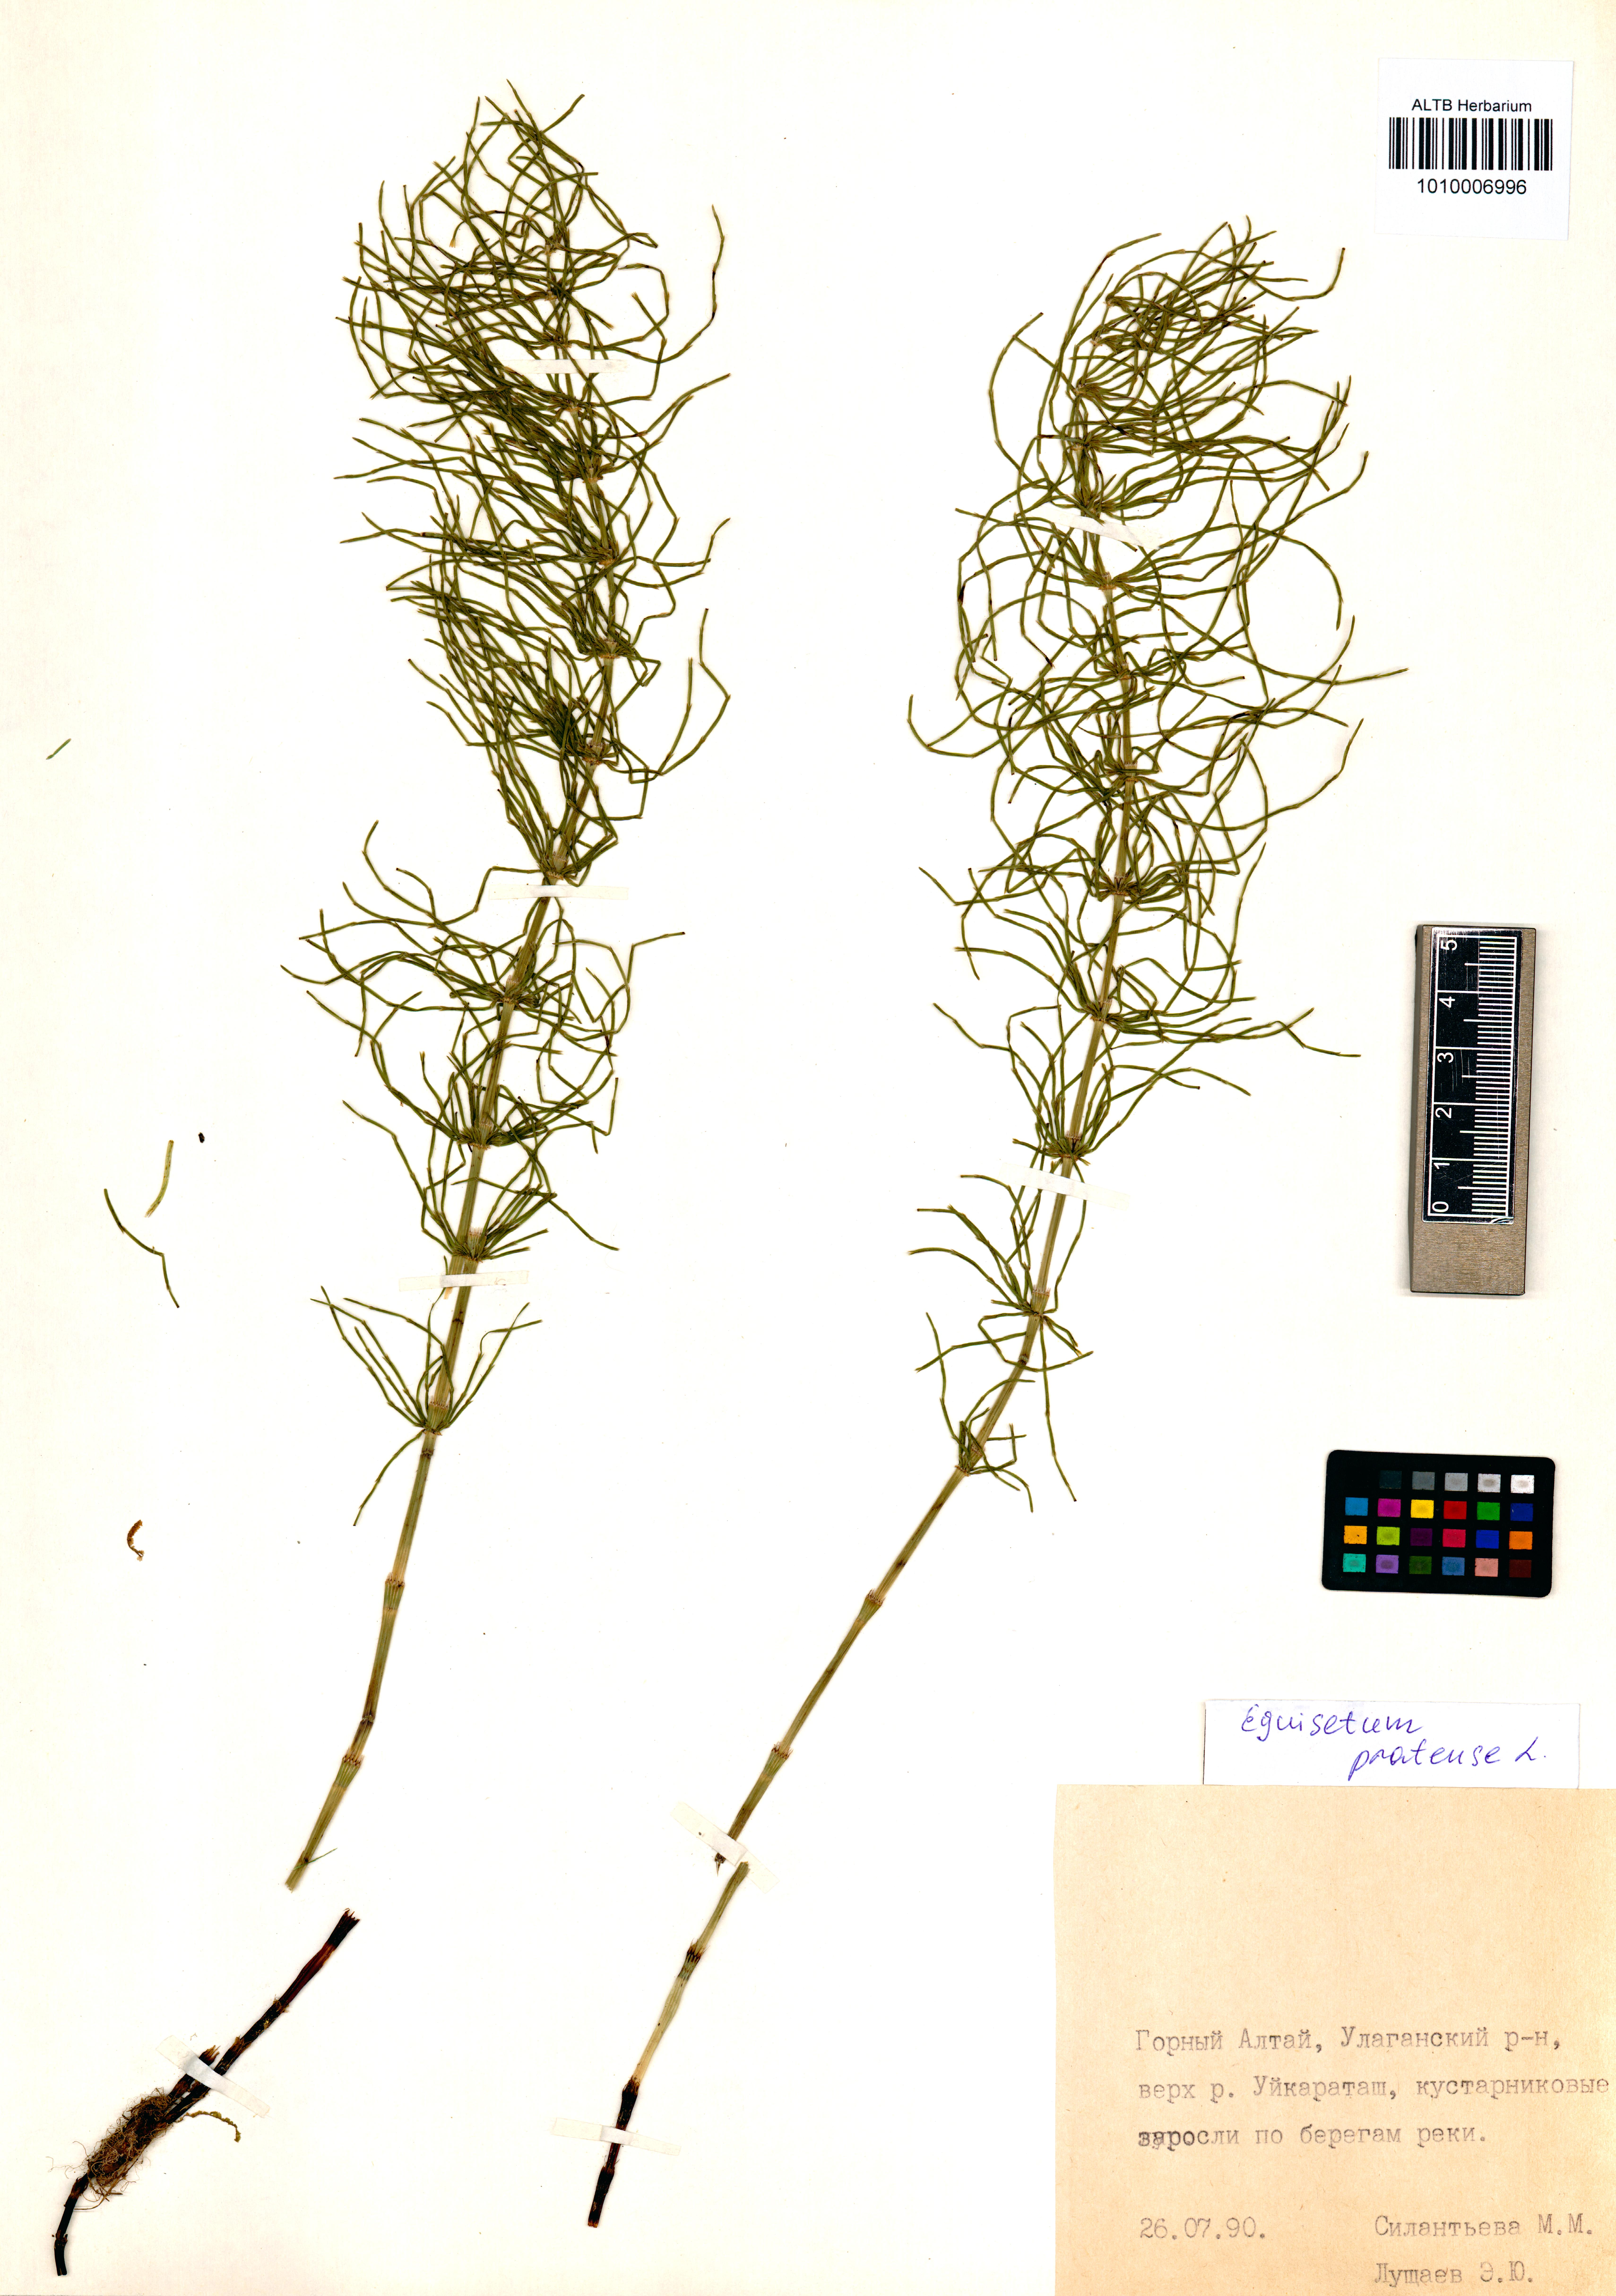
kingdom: Plantae
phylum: Tracheophyta
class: Polypodiopsida
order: Equisetales
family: Equisetaceae
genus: Equisetum
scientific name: Equisetum pratense
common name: Meadow horsetail
